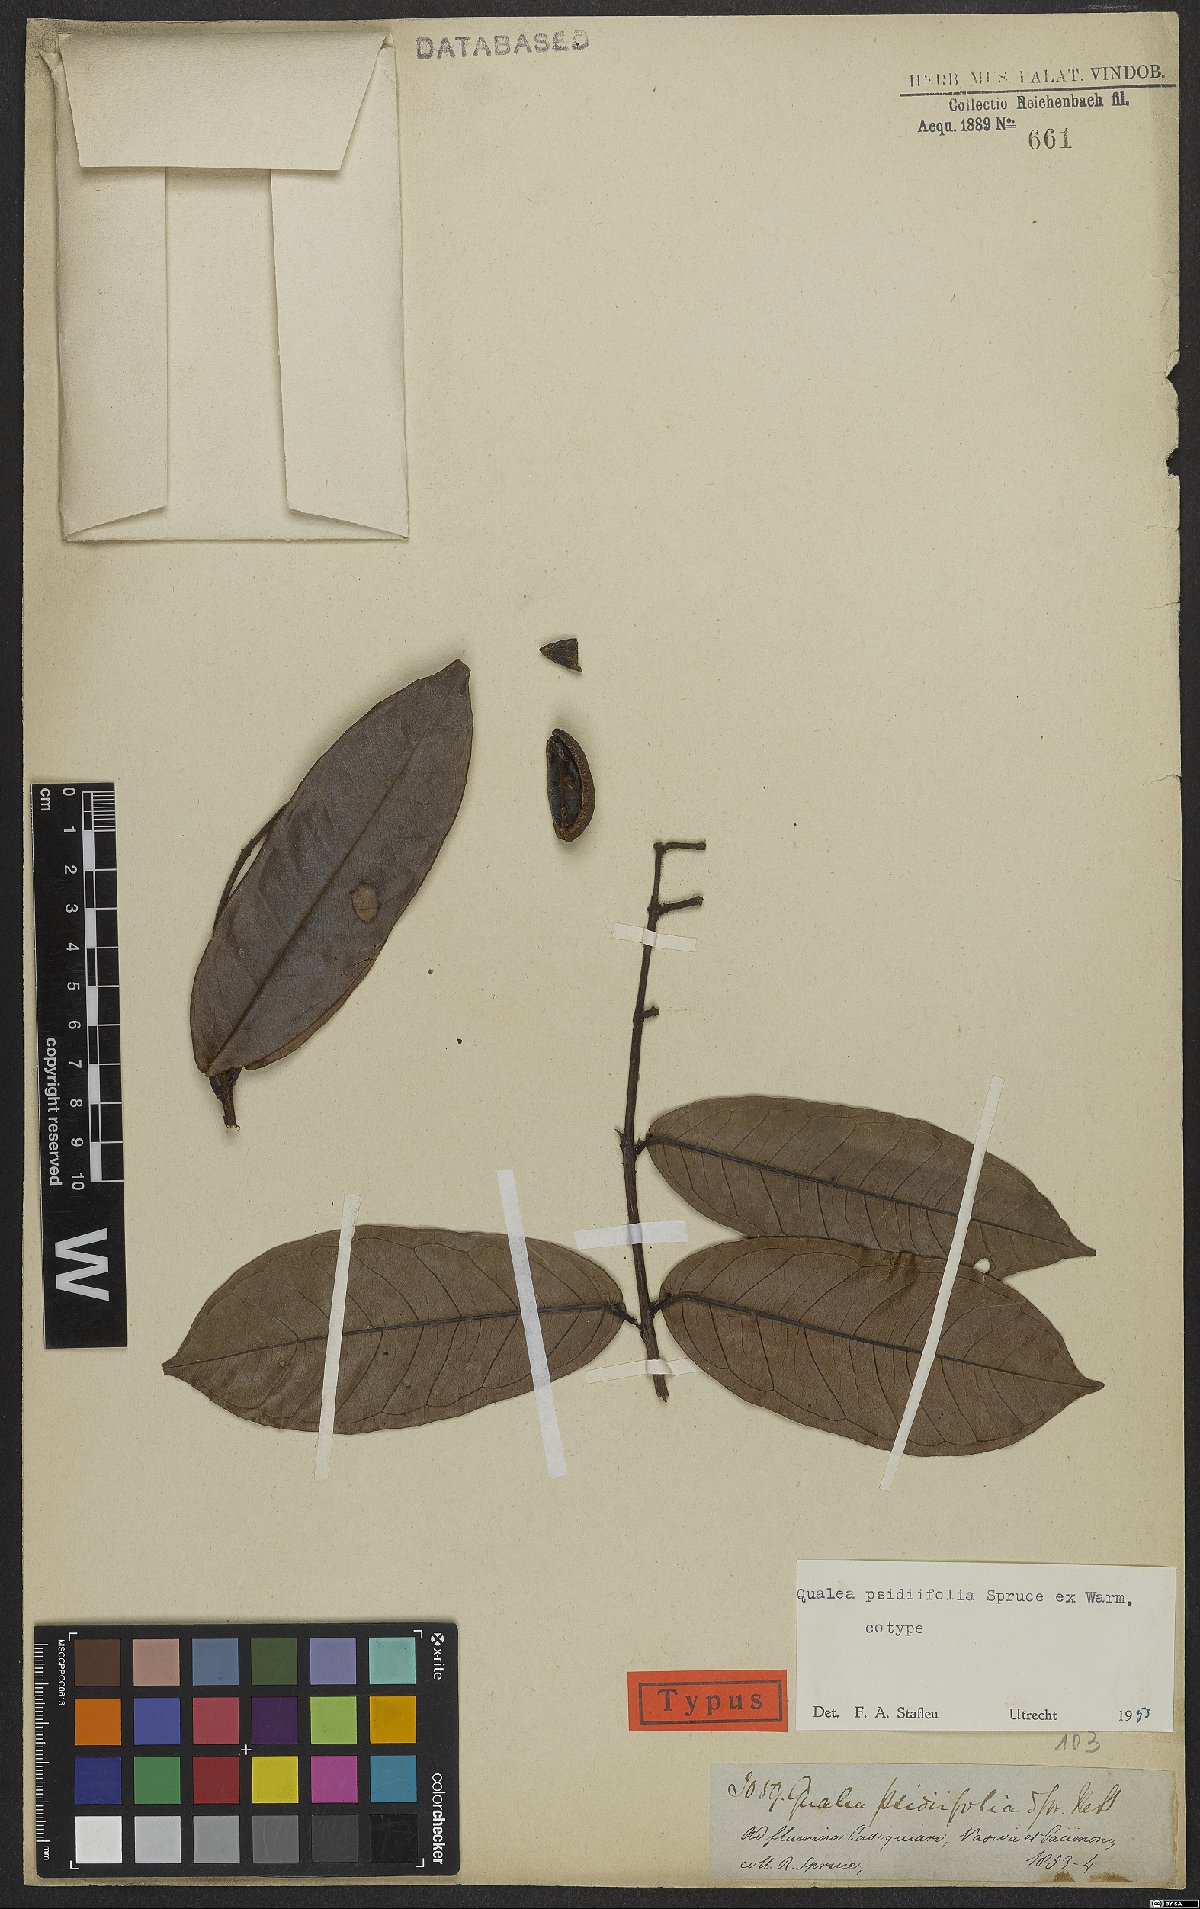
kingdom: Plantae
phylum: Tracheophyta
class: Magnoliopsida
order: Myrtales
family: Vochysiaceae
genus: Qualea
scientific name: Qualea psidiifolia
